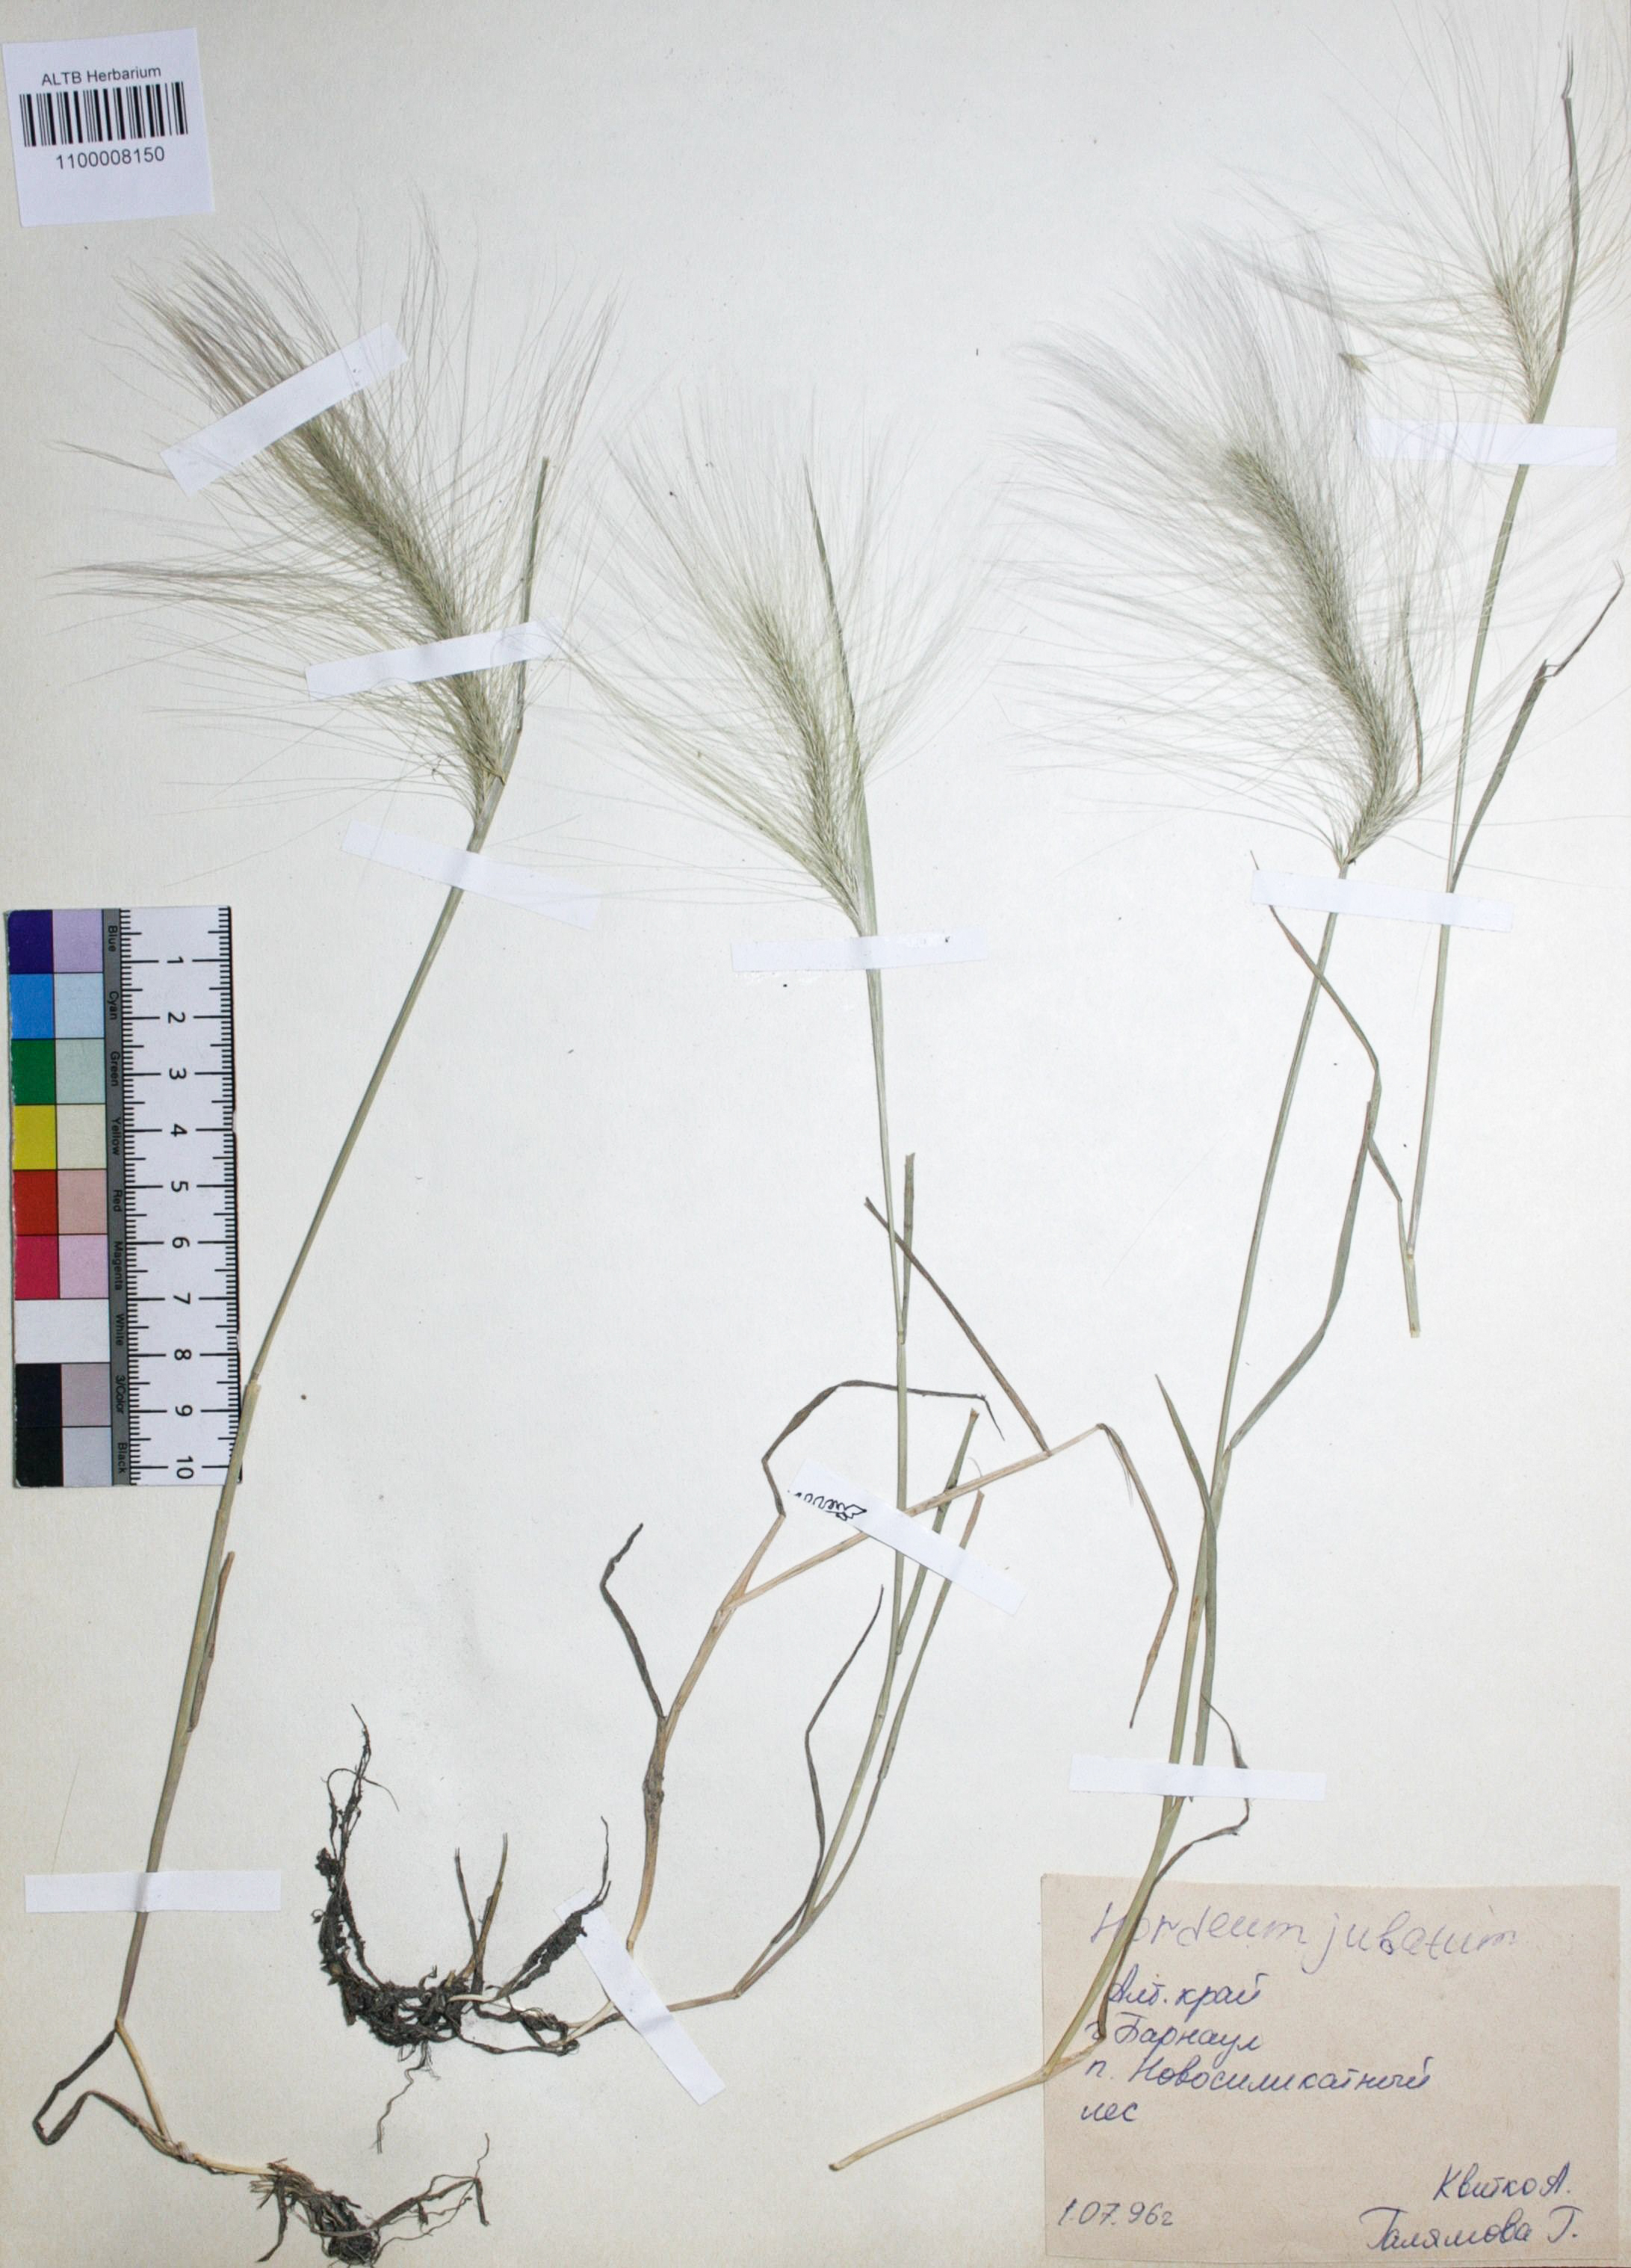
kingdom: Plantae
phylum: Tracheophyta
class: Liliopsida
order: Poales
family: Poaceae
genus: Hordeum
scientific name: Hordeum jubatum
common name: Foxtail barley
